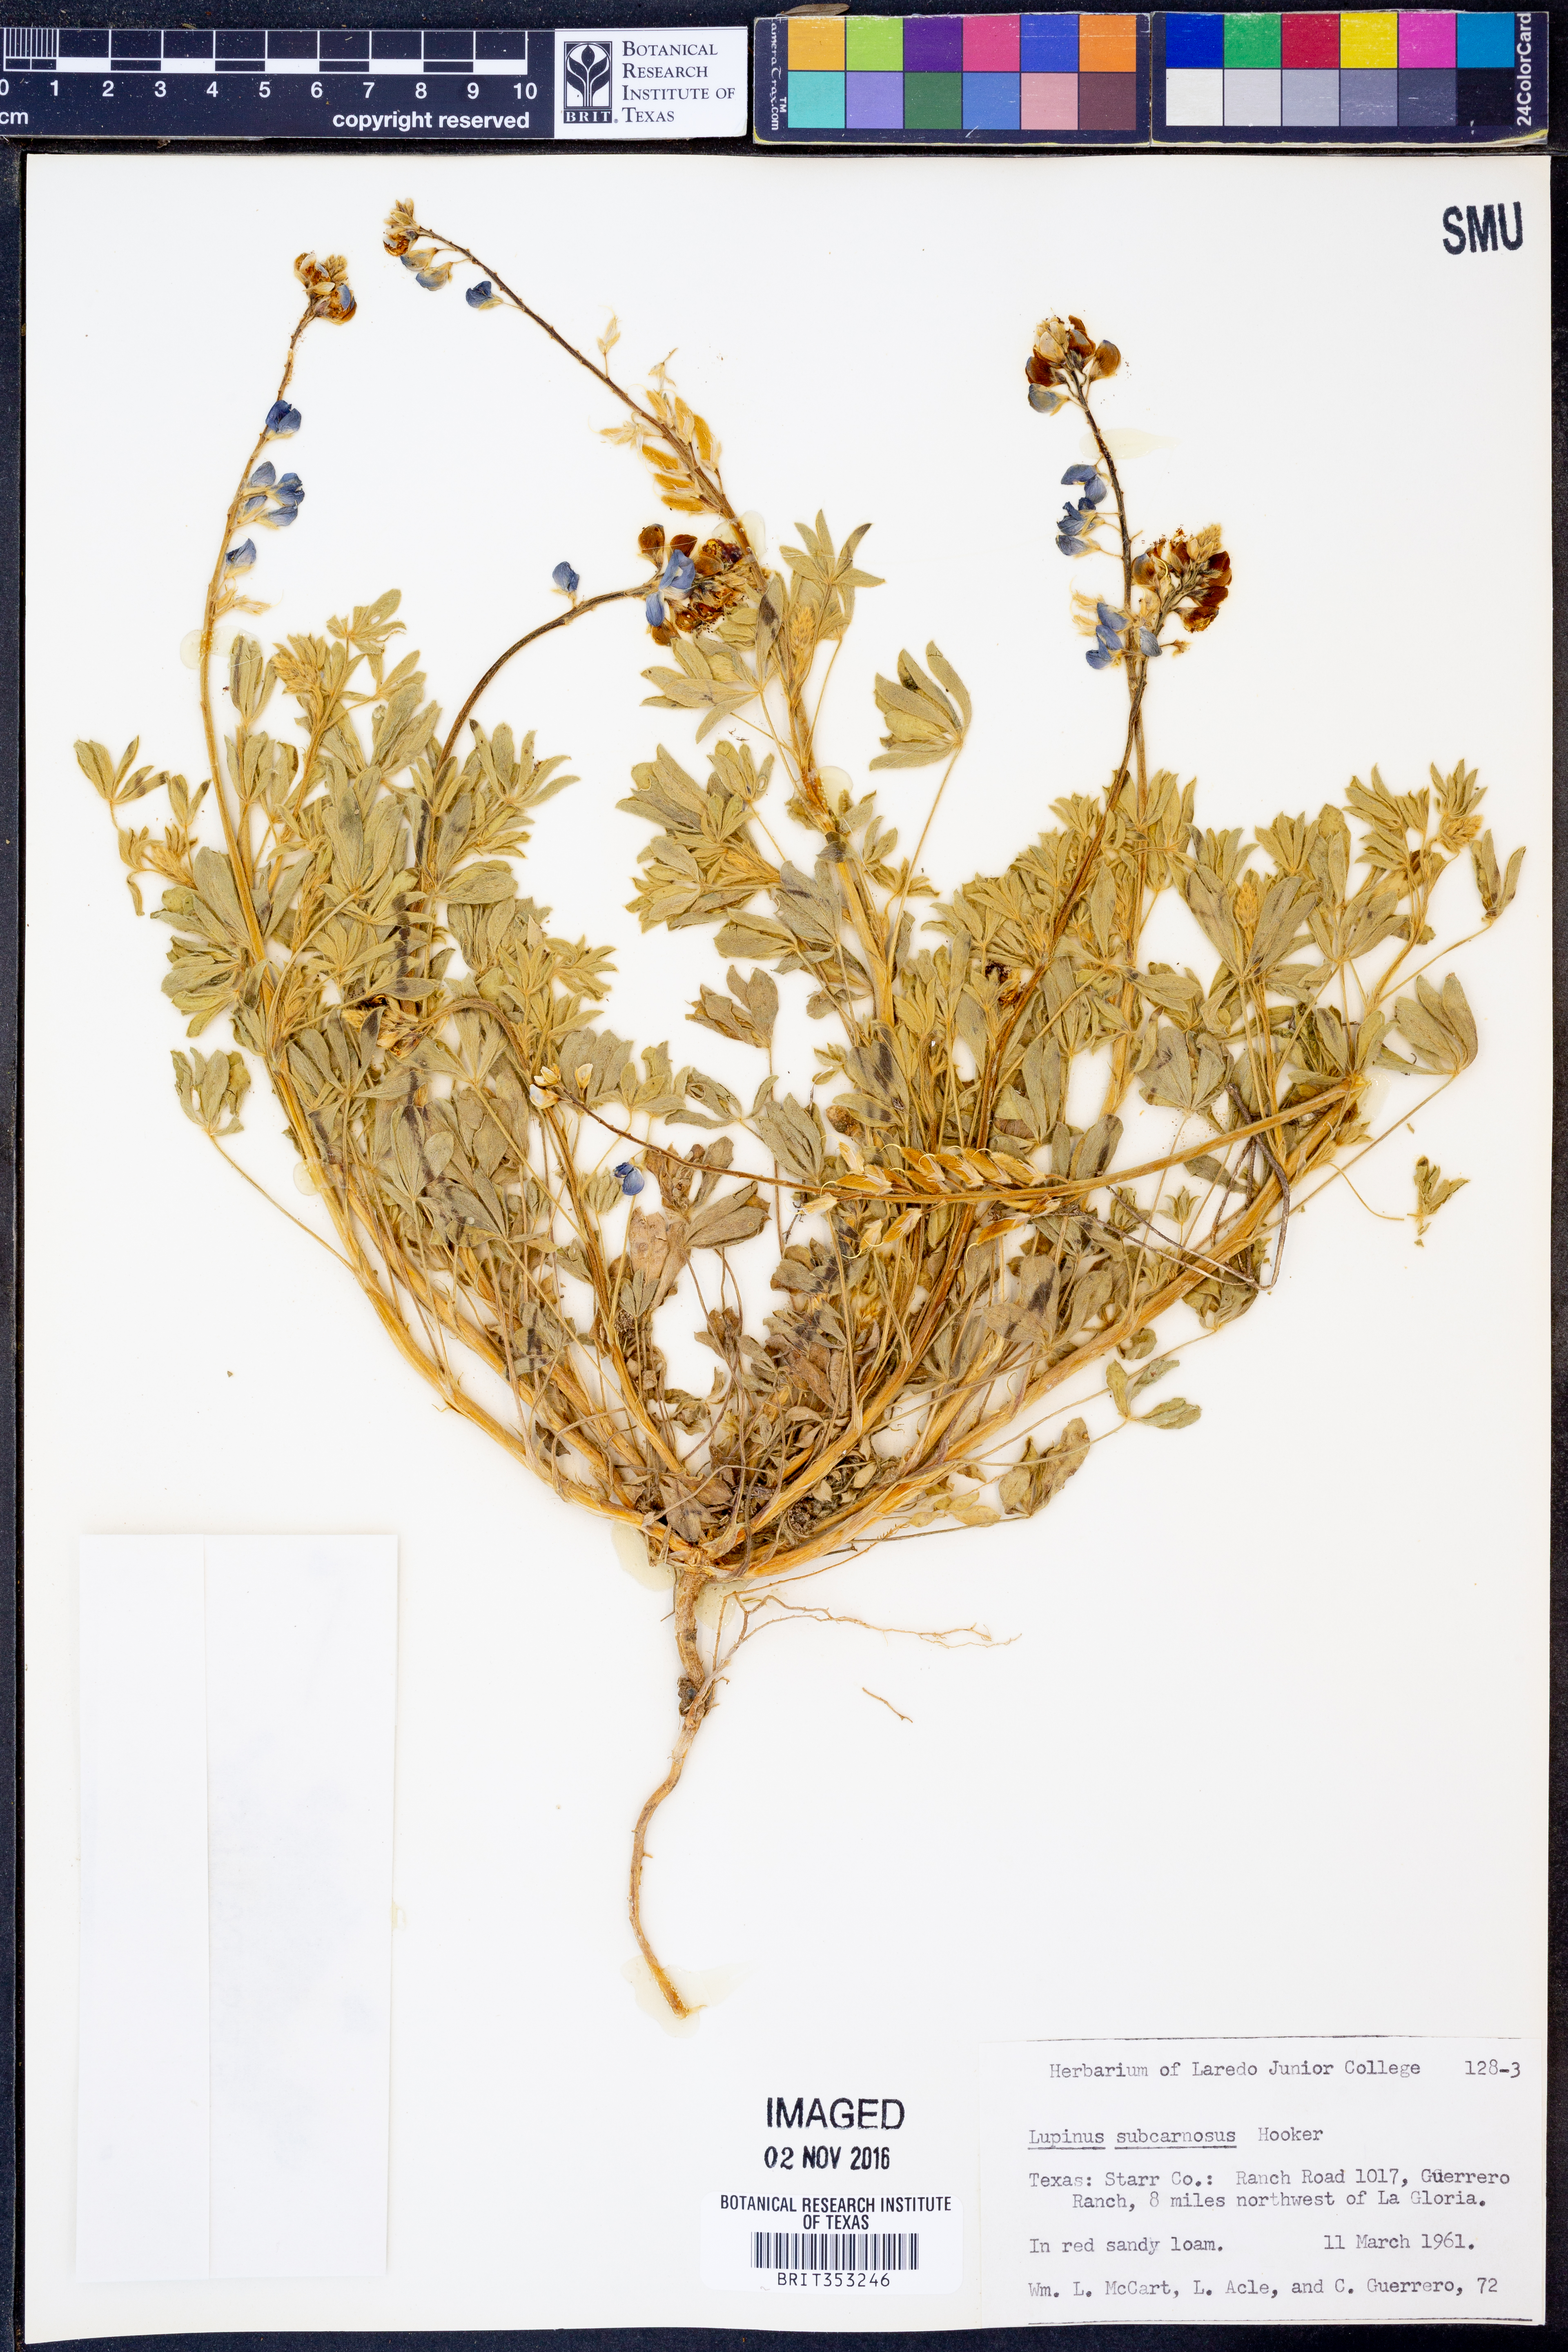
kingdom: Plantae
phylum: Tracheophyta
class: Magnoliopsida
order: Fabales
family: Fabaceae
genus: Lupinus
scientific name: Lupinus subcarnosus
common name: Texas bluebonnet
